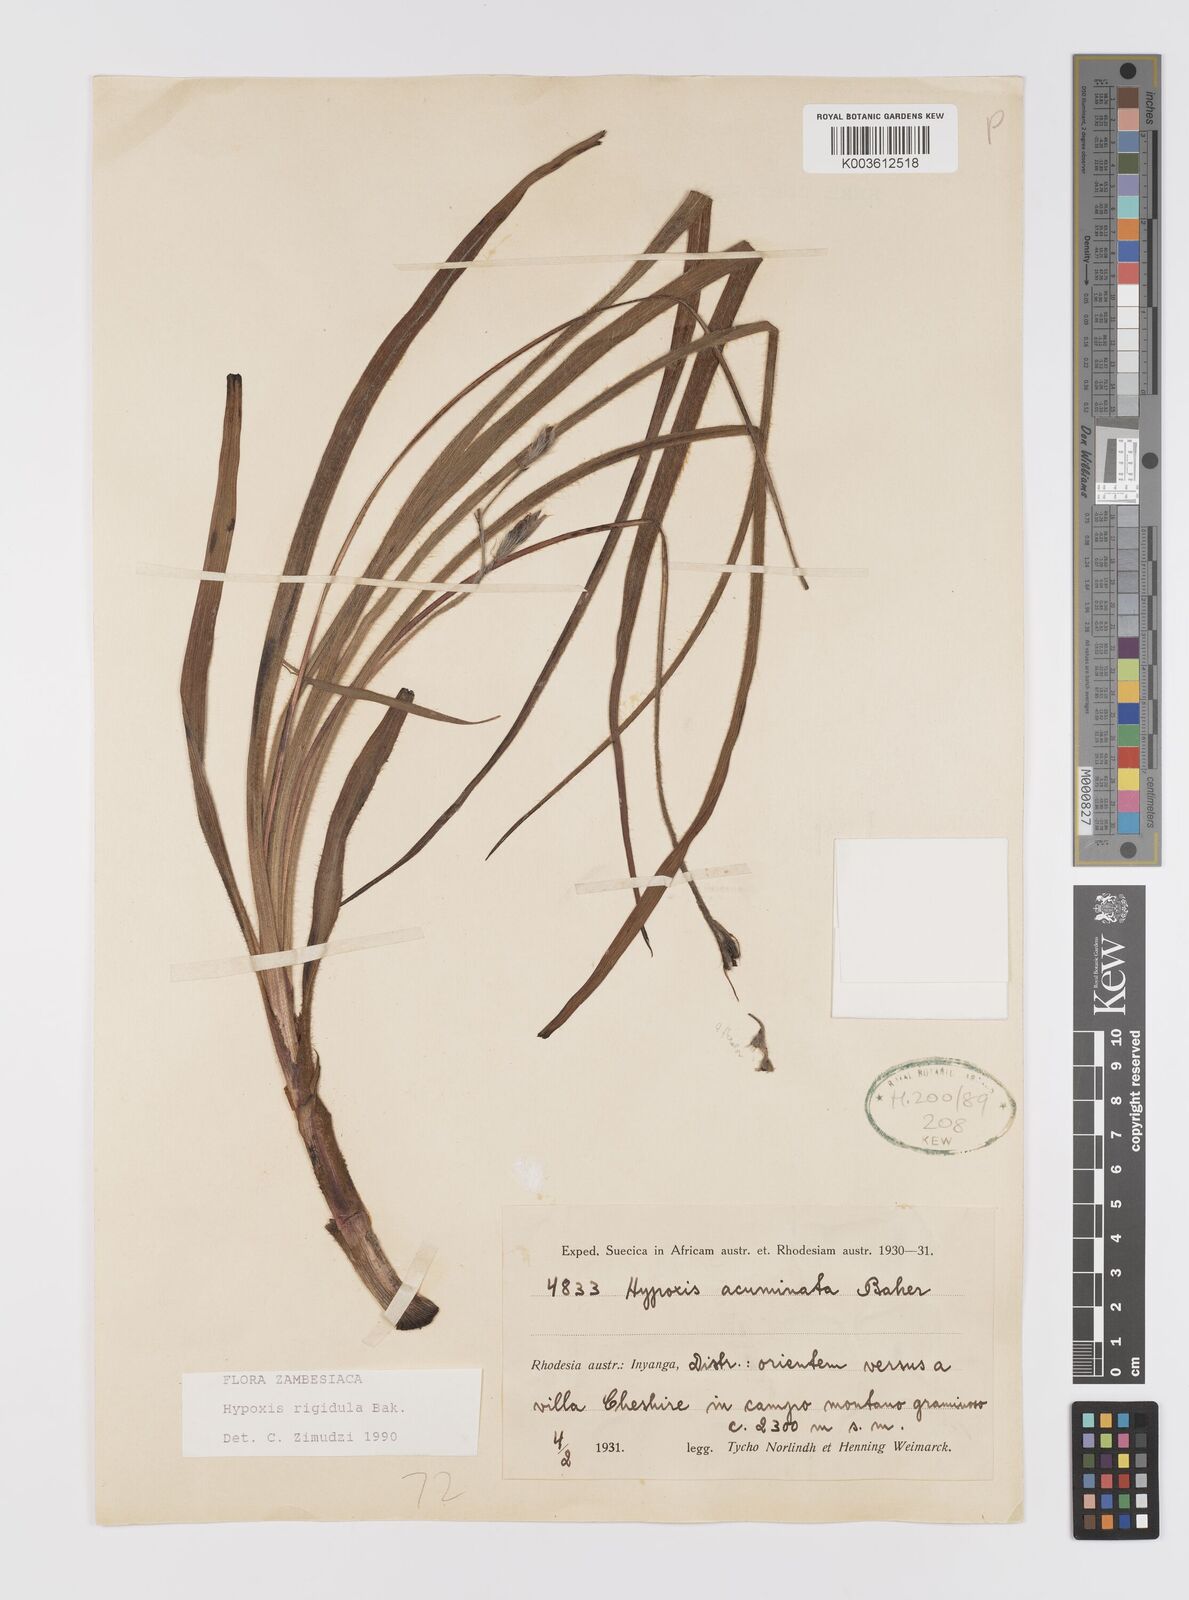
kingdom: Plantae
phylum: Tracheophyta
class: Liliopsida
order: Asparagales
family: Hypoxidaceae
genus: Hypoxis
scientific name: Hypoxis nyasica
